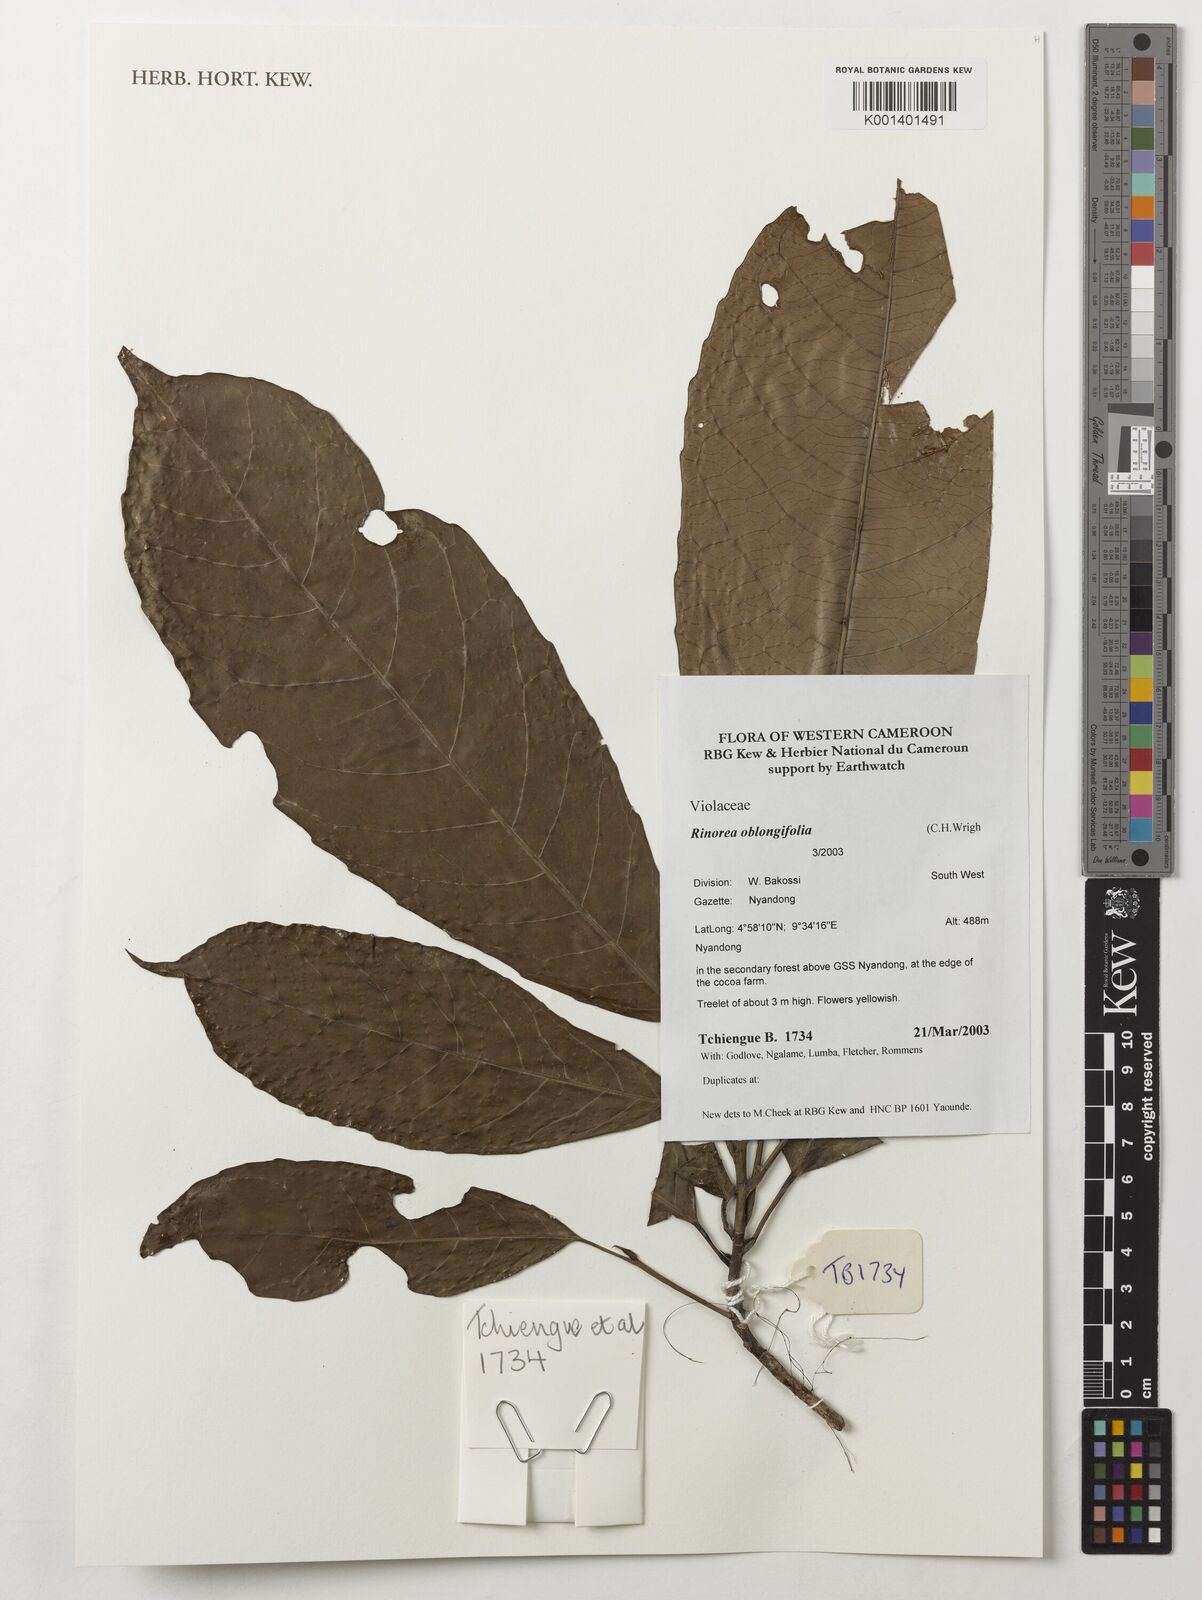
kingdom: Plantae
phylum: Tracheophyta
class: Magnoliopsida
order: Apiales
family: Pittosporaceae
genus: Marianthus
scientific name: Marianthus coeruleopunctatus
